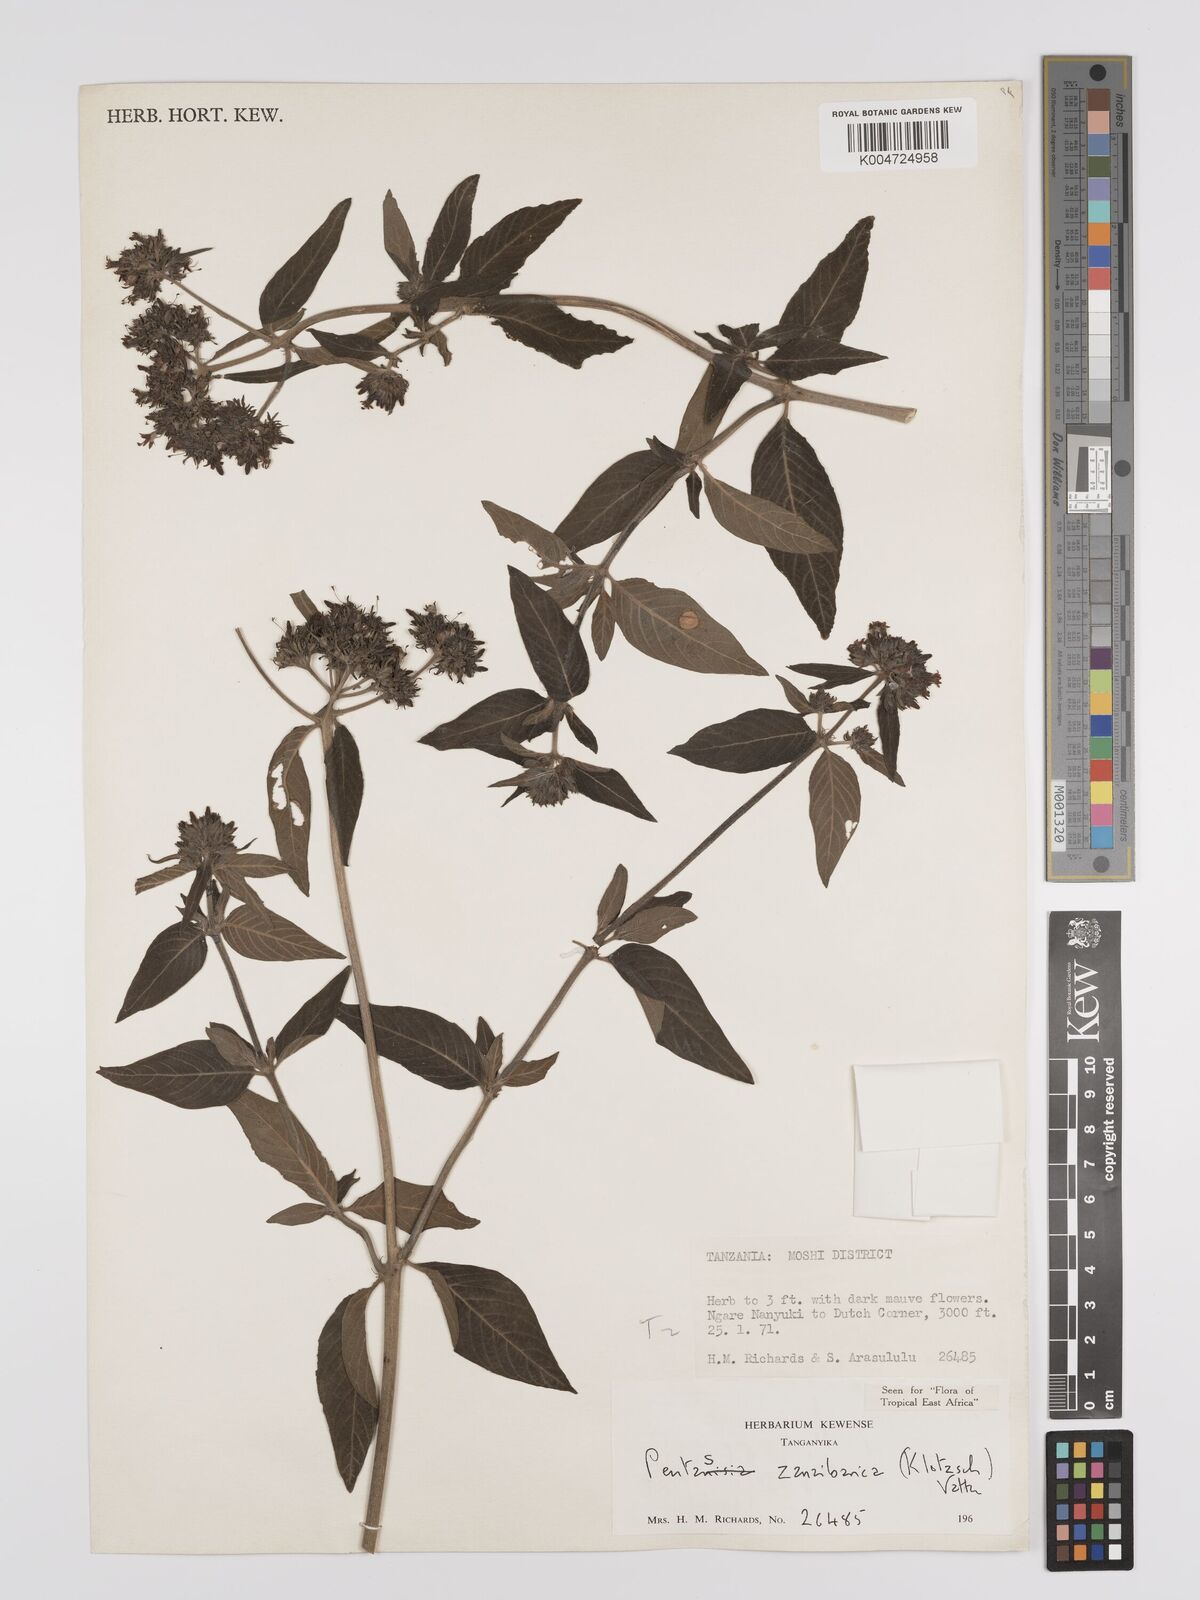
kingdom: Plantae
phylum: Tracheophyta
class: Magnoliopsida
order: Gentianales
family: Rubiaceae
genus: Pentas
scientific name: Pentas zanzibarica
